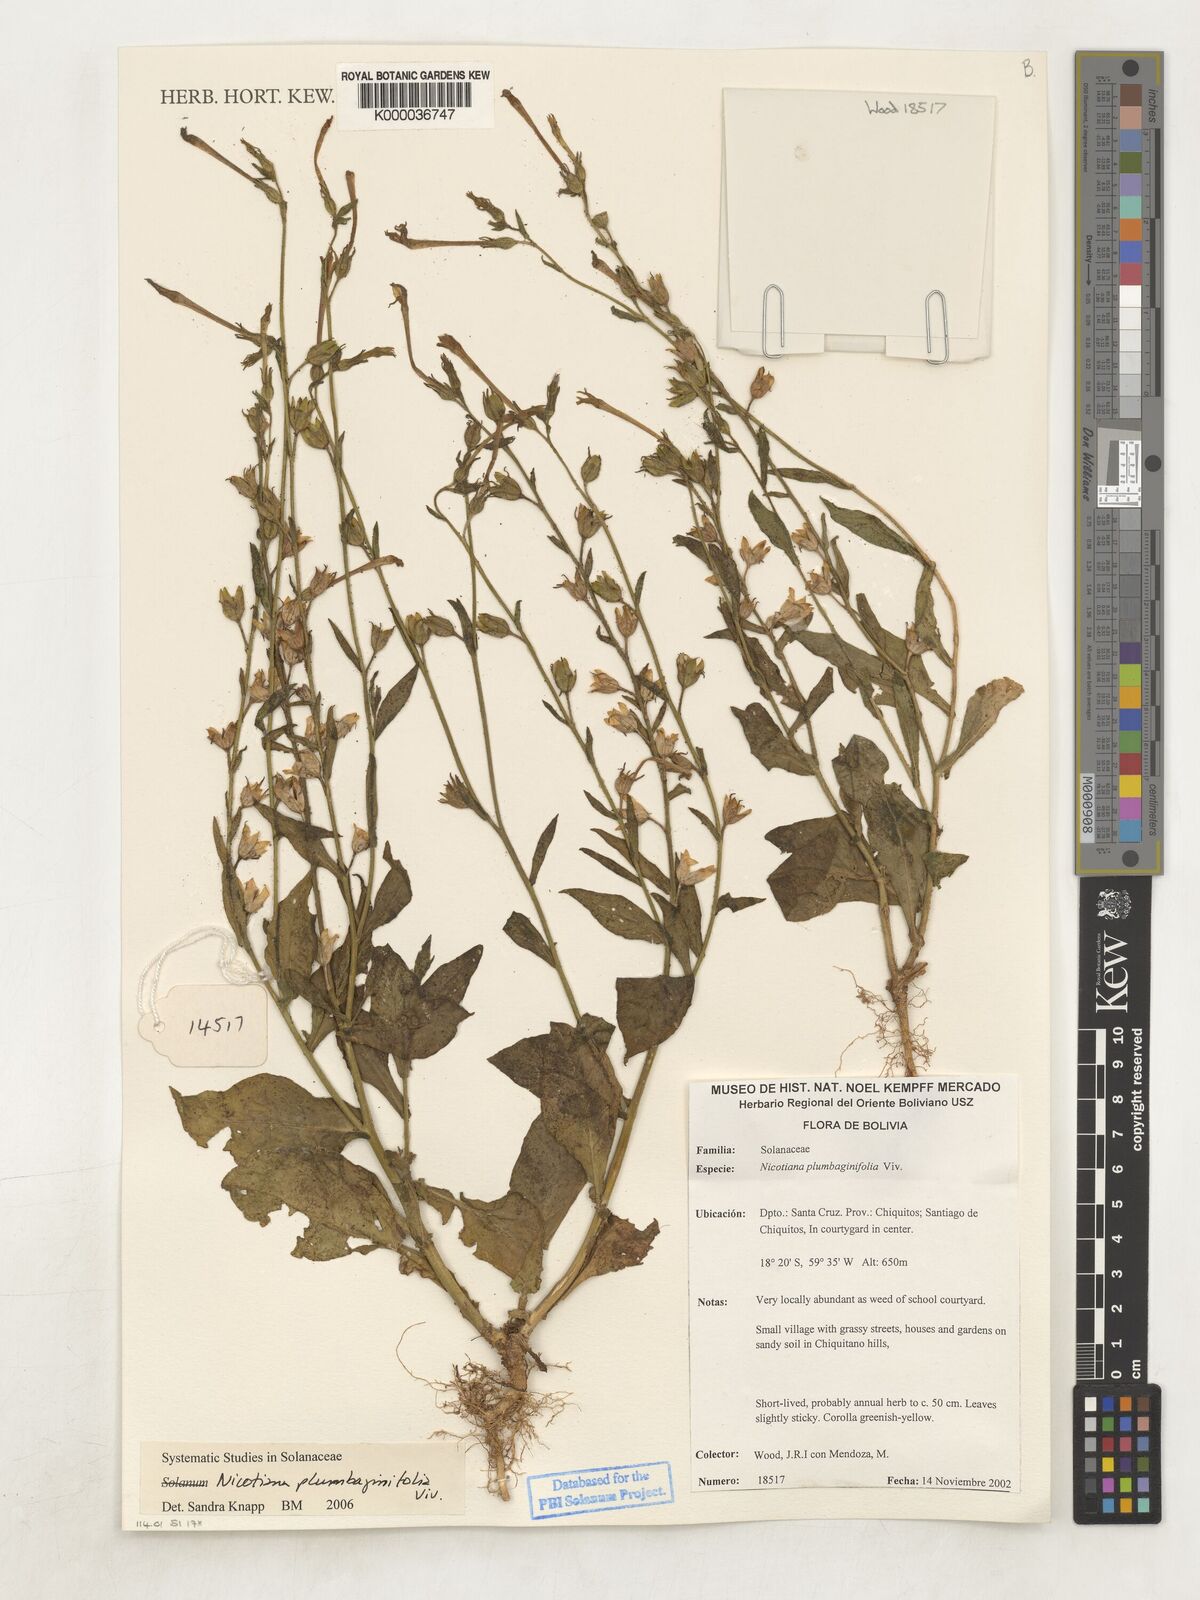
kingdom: Plantae
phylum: Tracheophyta
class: Magnoliopsida
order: Solanales
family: Solanaceae
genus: Nicotiana
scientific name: Nicotiana plumbaginifolia
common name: Tex-mex tobacco
